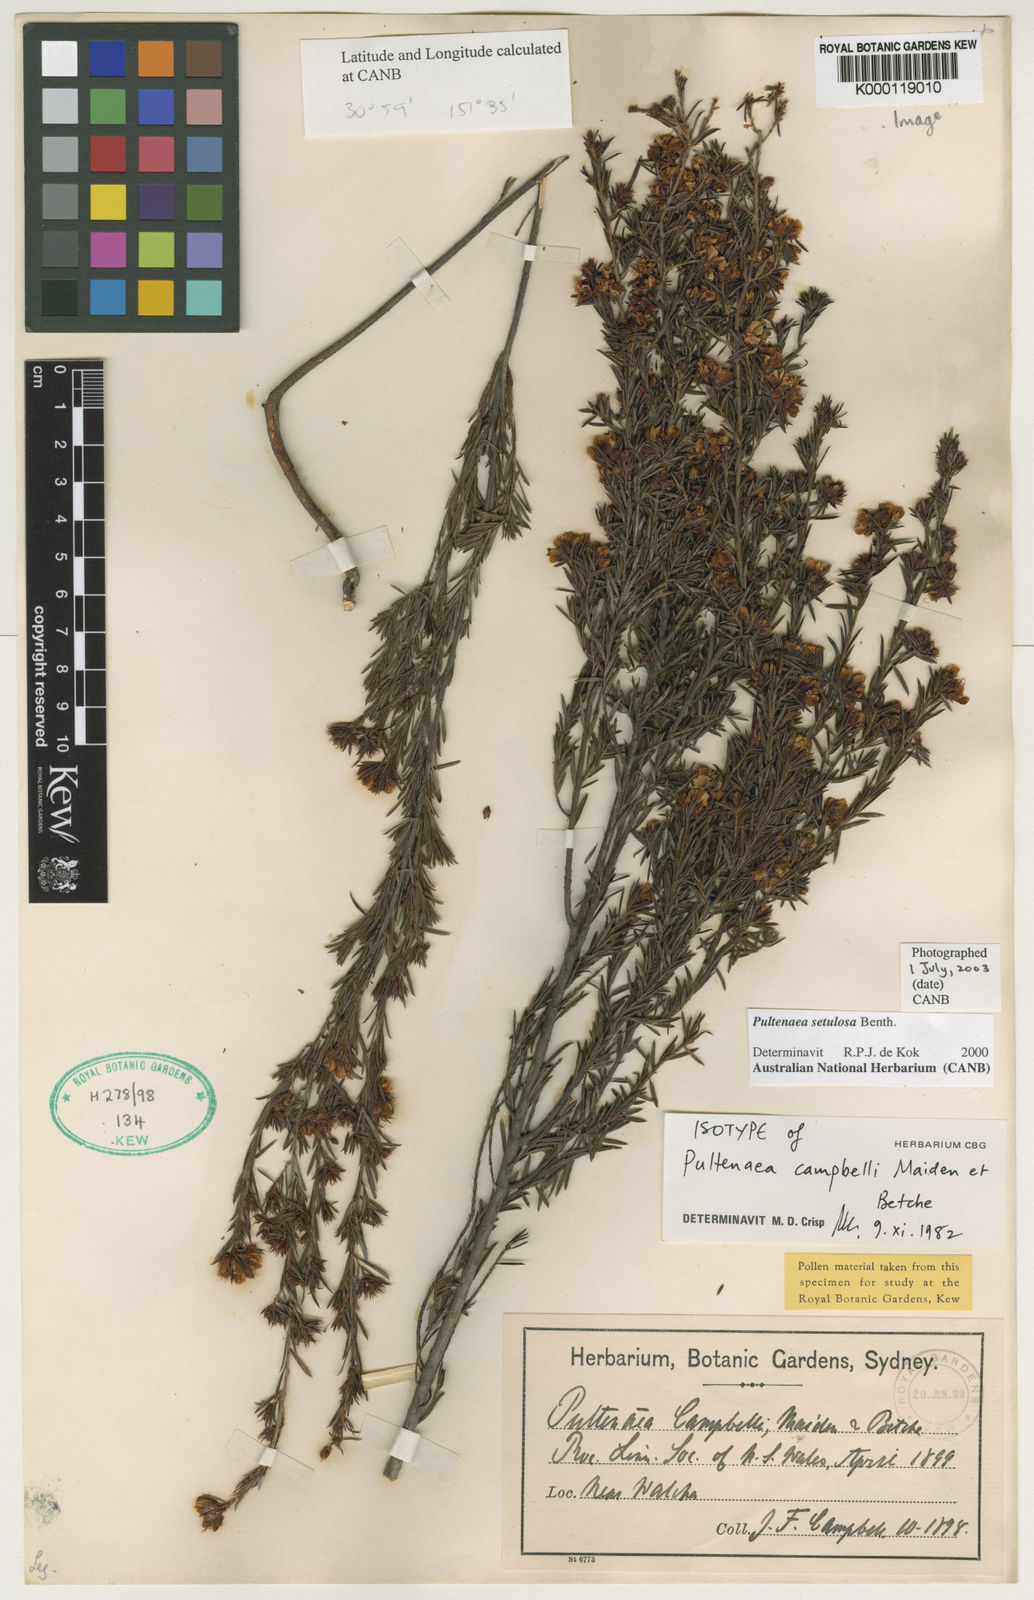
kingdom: Plantae
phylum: Tracheophyta
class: Magnoliopsida
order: Fabales
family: Fabaceae
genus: Pultenaea
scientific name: Pultenaea setulosa
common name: Boorman’s bush-pea
